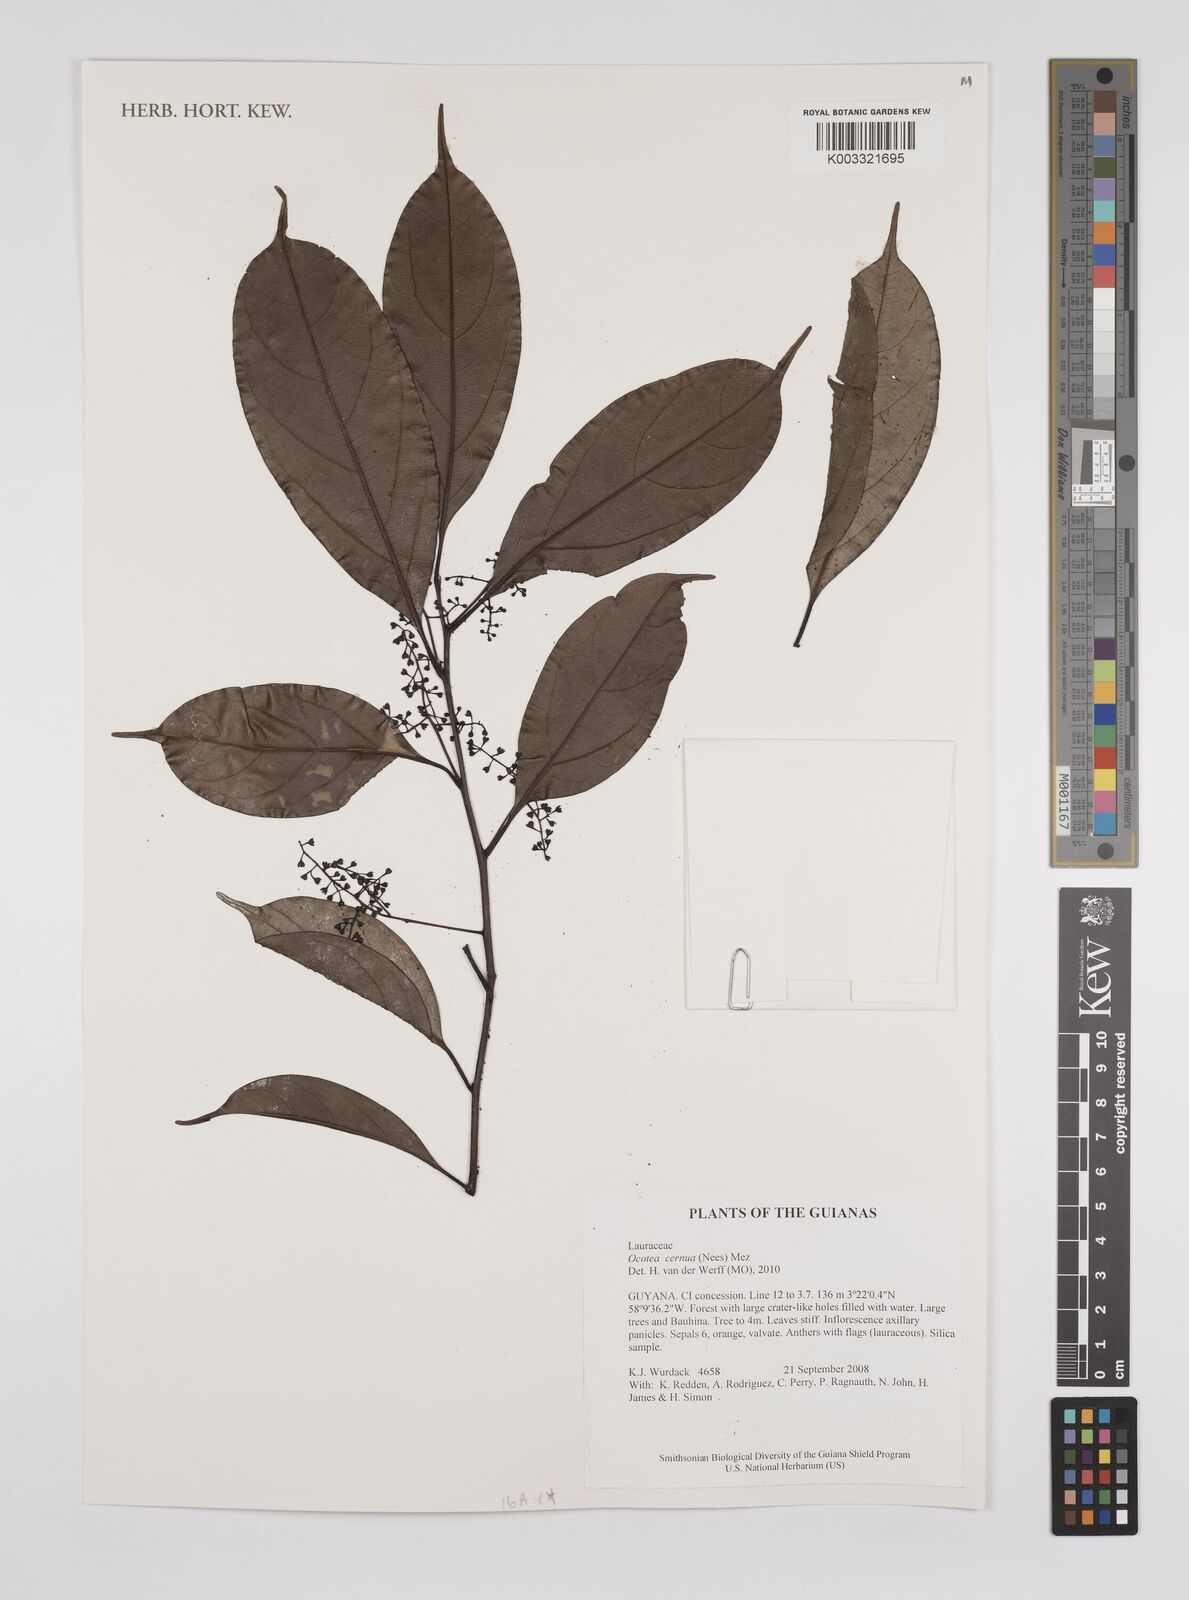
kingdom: Plantae
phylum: Tracheophyta
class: Magnoliopsida
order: Laurales
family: Lauraceae
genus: Ocotea
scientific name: Ocotea leptobotra
